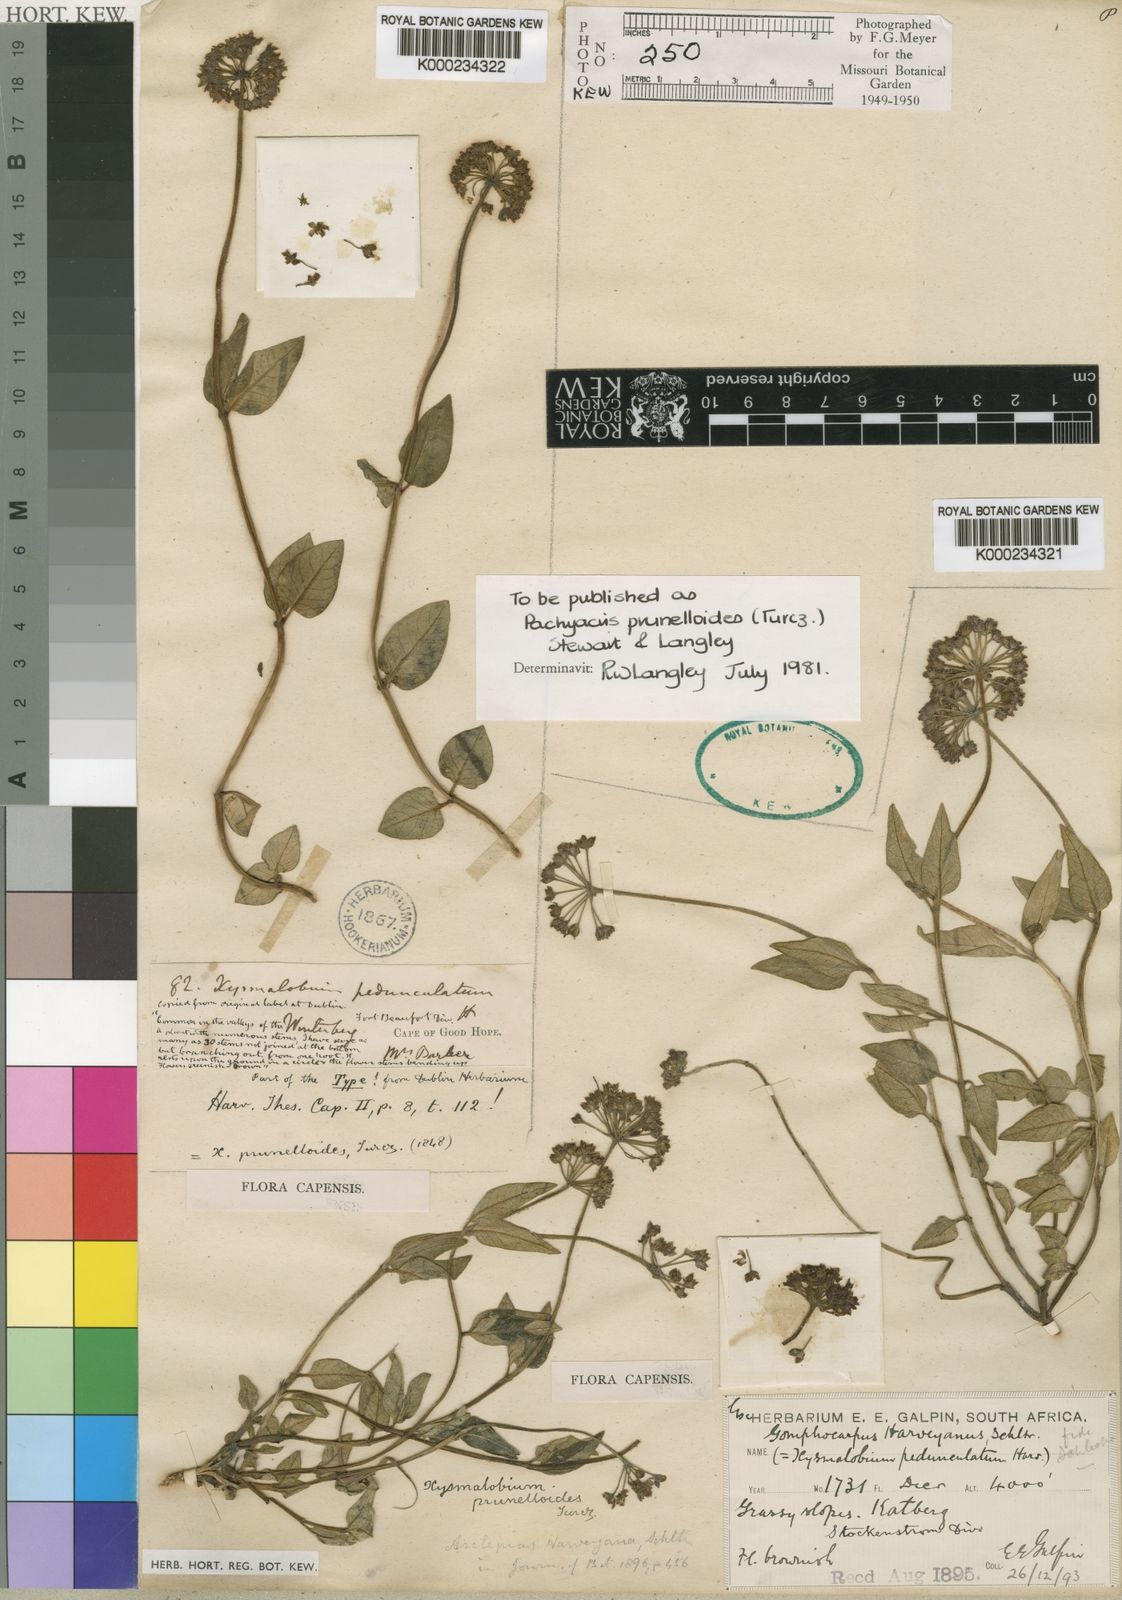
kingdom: Plantae
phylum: Tracheophyta
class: Magnoliopsida
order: Gentianales
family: Apocynaceae
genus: Xysmalobium
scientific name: Xysmalobium prunelloides
